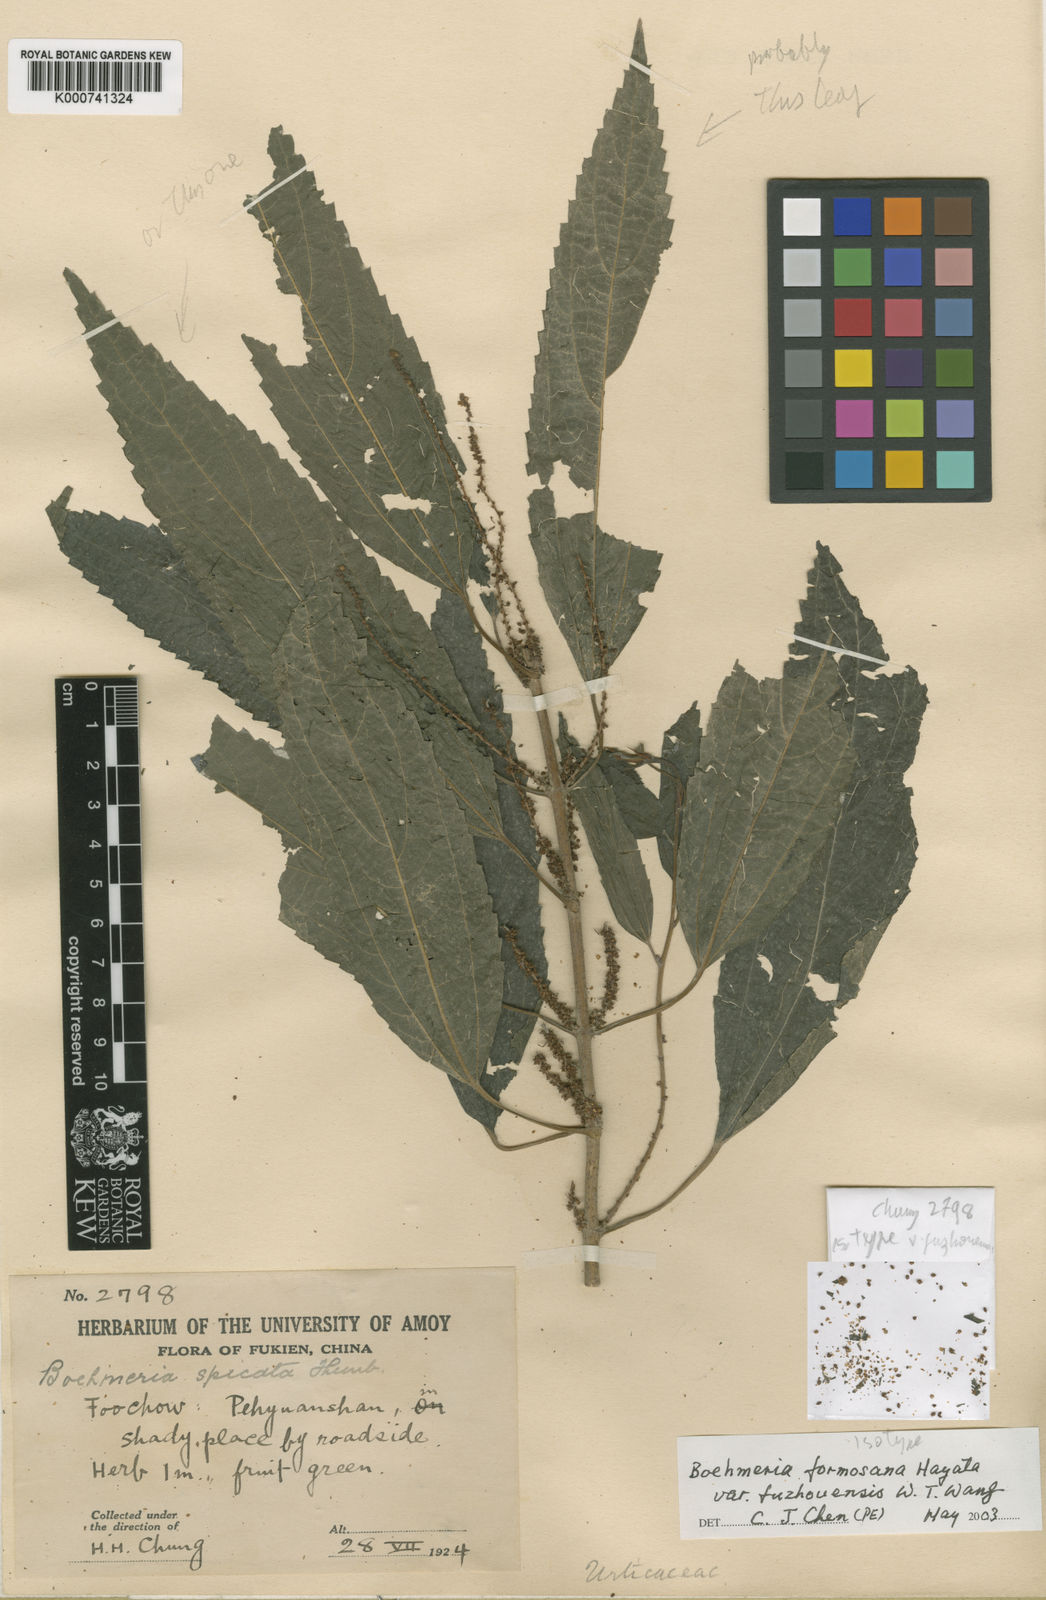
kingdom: Plantae
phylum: Tracheophyta
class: Magnoliopsida
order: Rosales
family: Urticaceae
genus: Boehmeria
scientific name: Boehmeria sieboldiana
